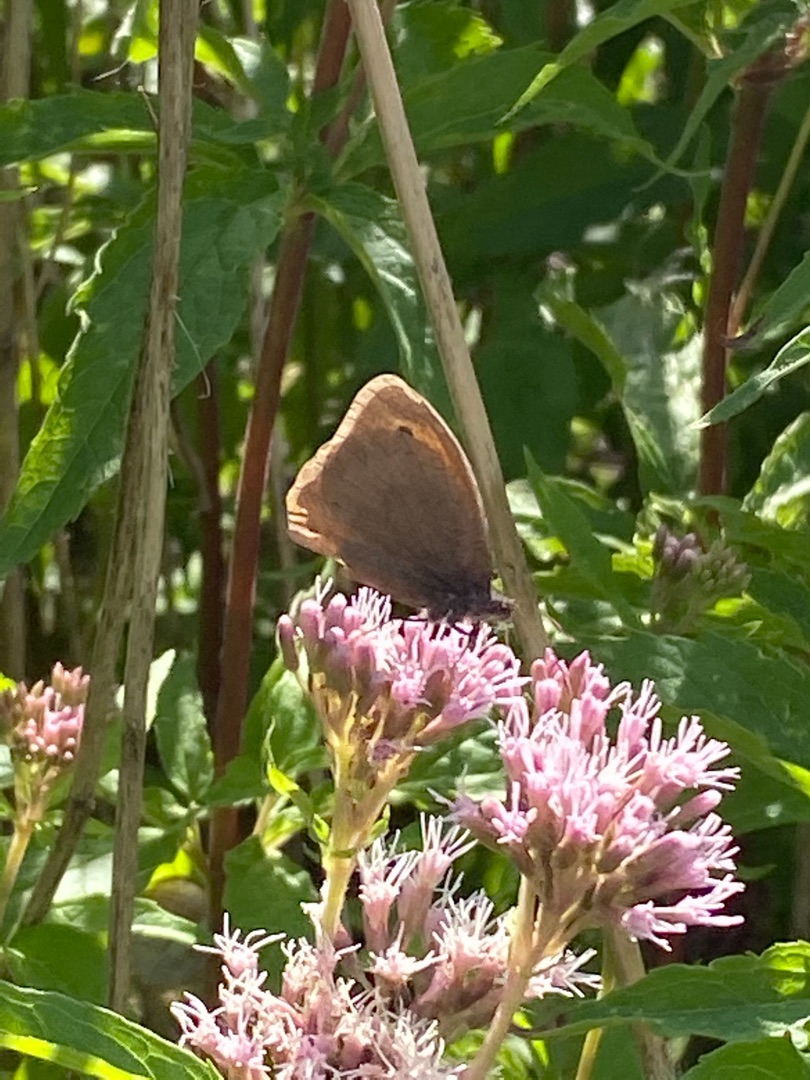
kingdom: Animalia
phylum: Arthropoda
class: Insecta
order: Lepidoptera
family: Nymphalidae
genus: Maniola
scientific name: Maniola jurtina
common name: Græsrandøje
